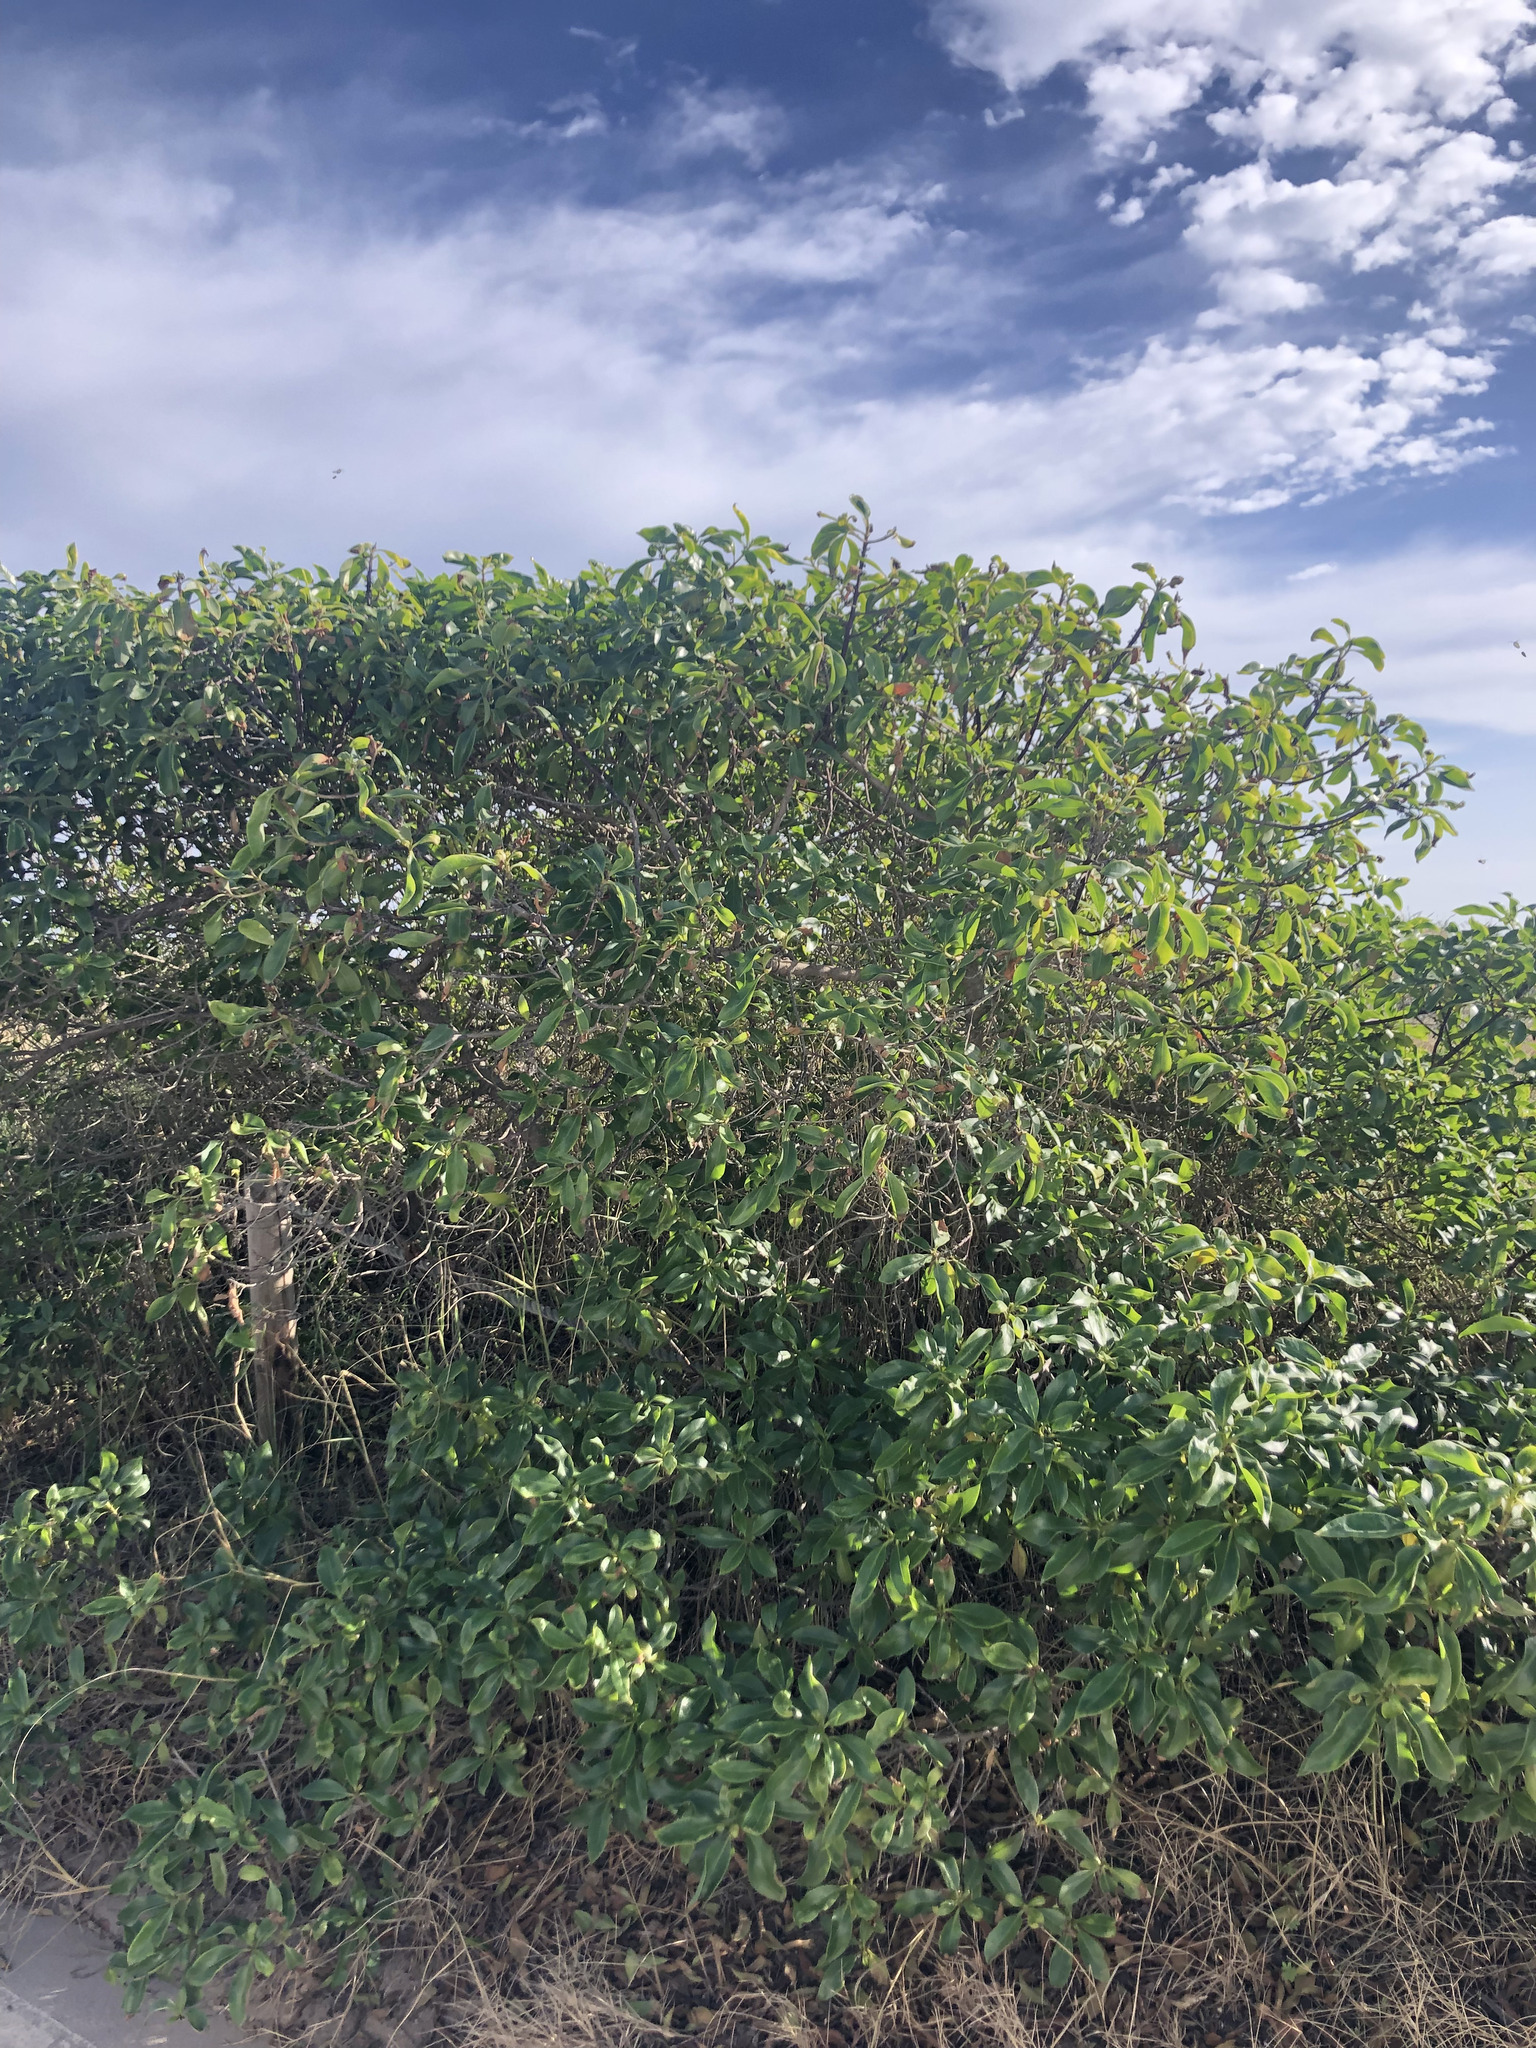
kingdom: Plantae
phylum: Tracheophyta
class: Magnoliopsida
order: Lamiales
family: Scrophulariaceae
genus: Myoporum
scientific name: Myoporum laetum
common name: Ngaio tree
